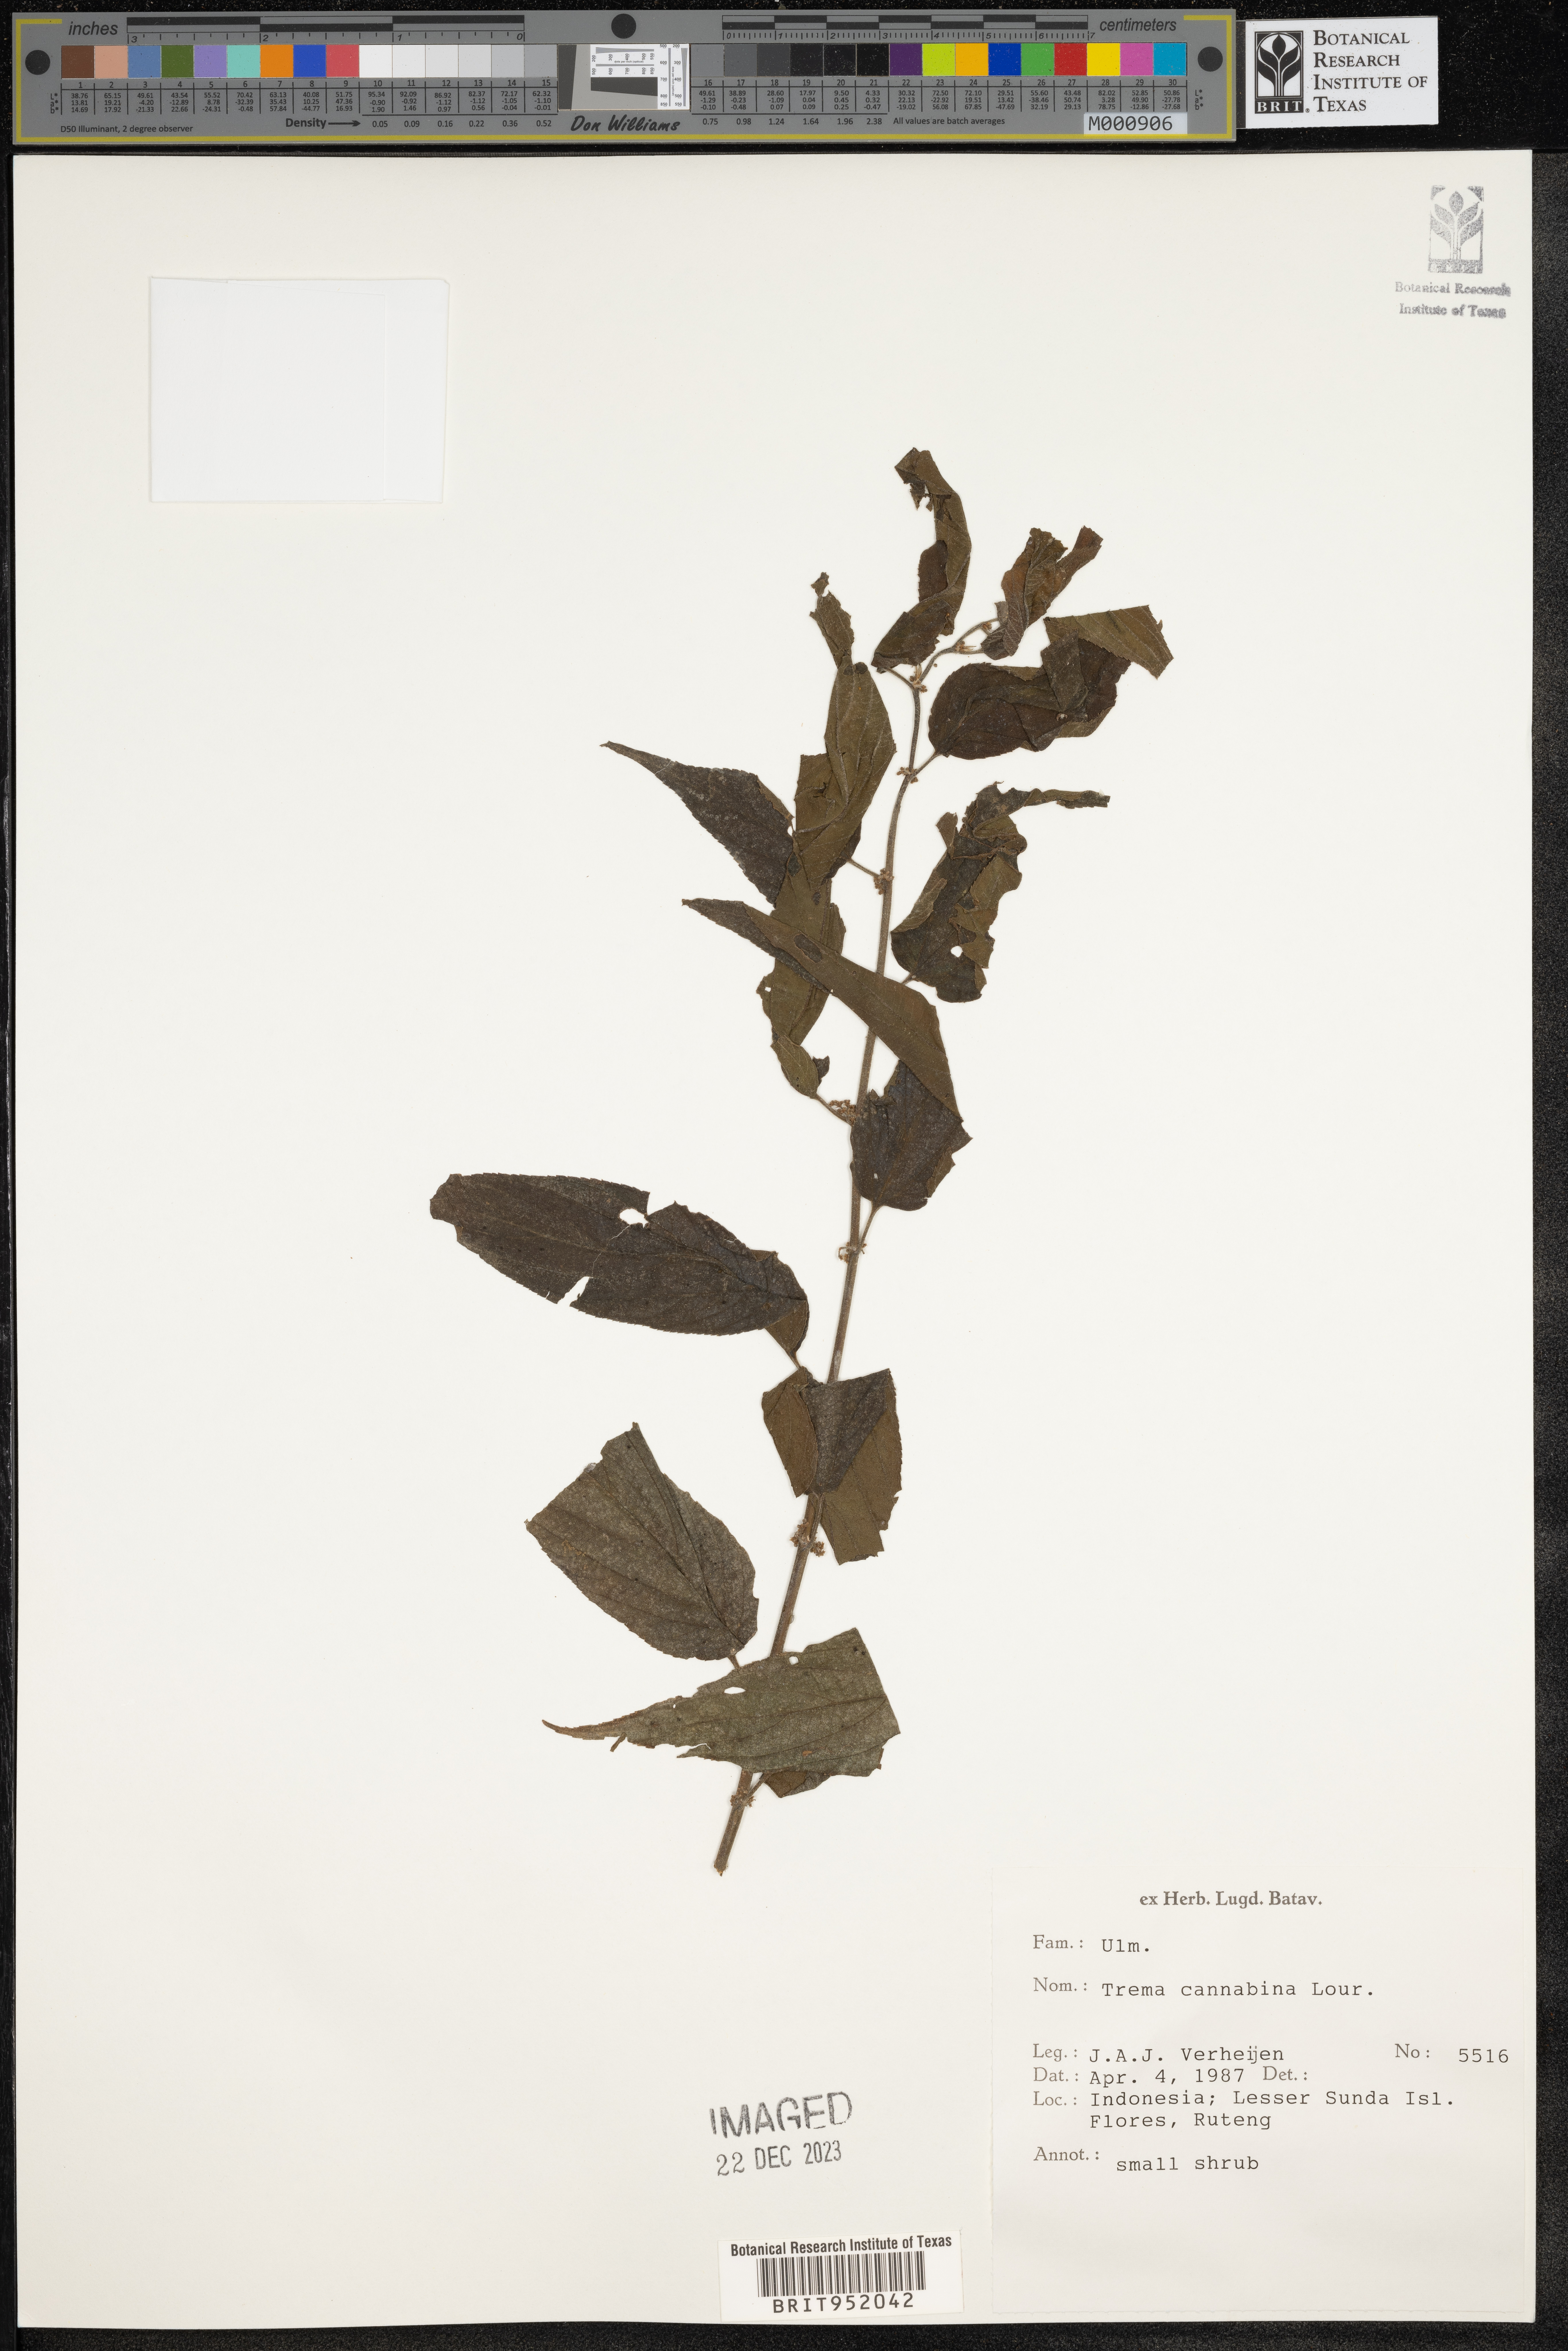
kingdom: Plantae
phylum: Tracheophyta
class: Magnoliopsida
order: Rosales
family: Cannabaceae
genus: Trema
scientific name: Trema cannabina
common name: Poison-peach
